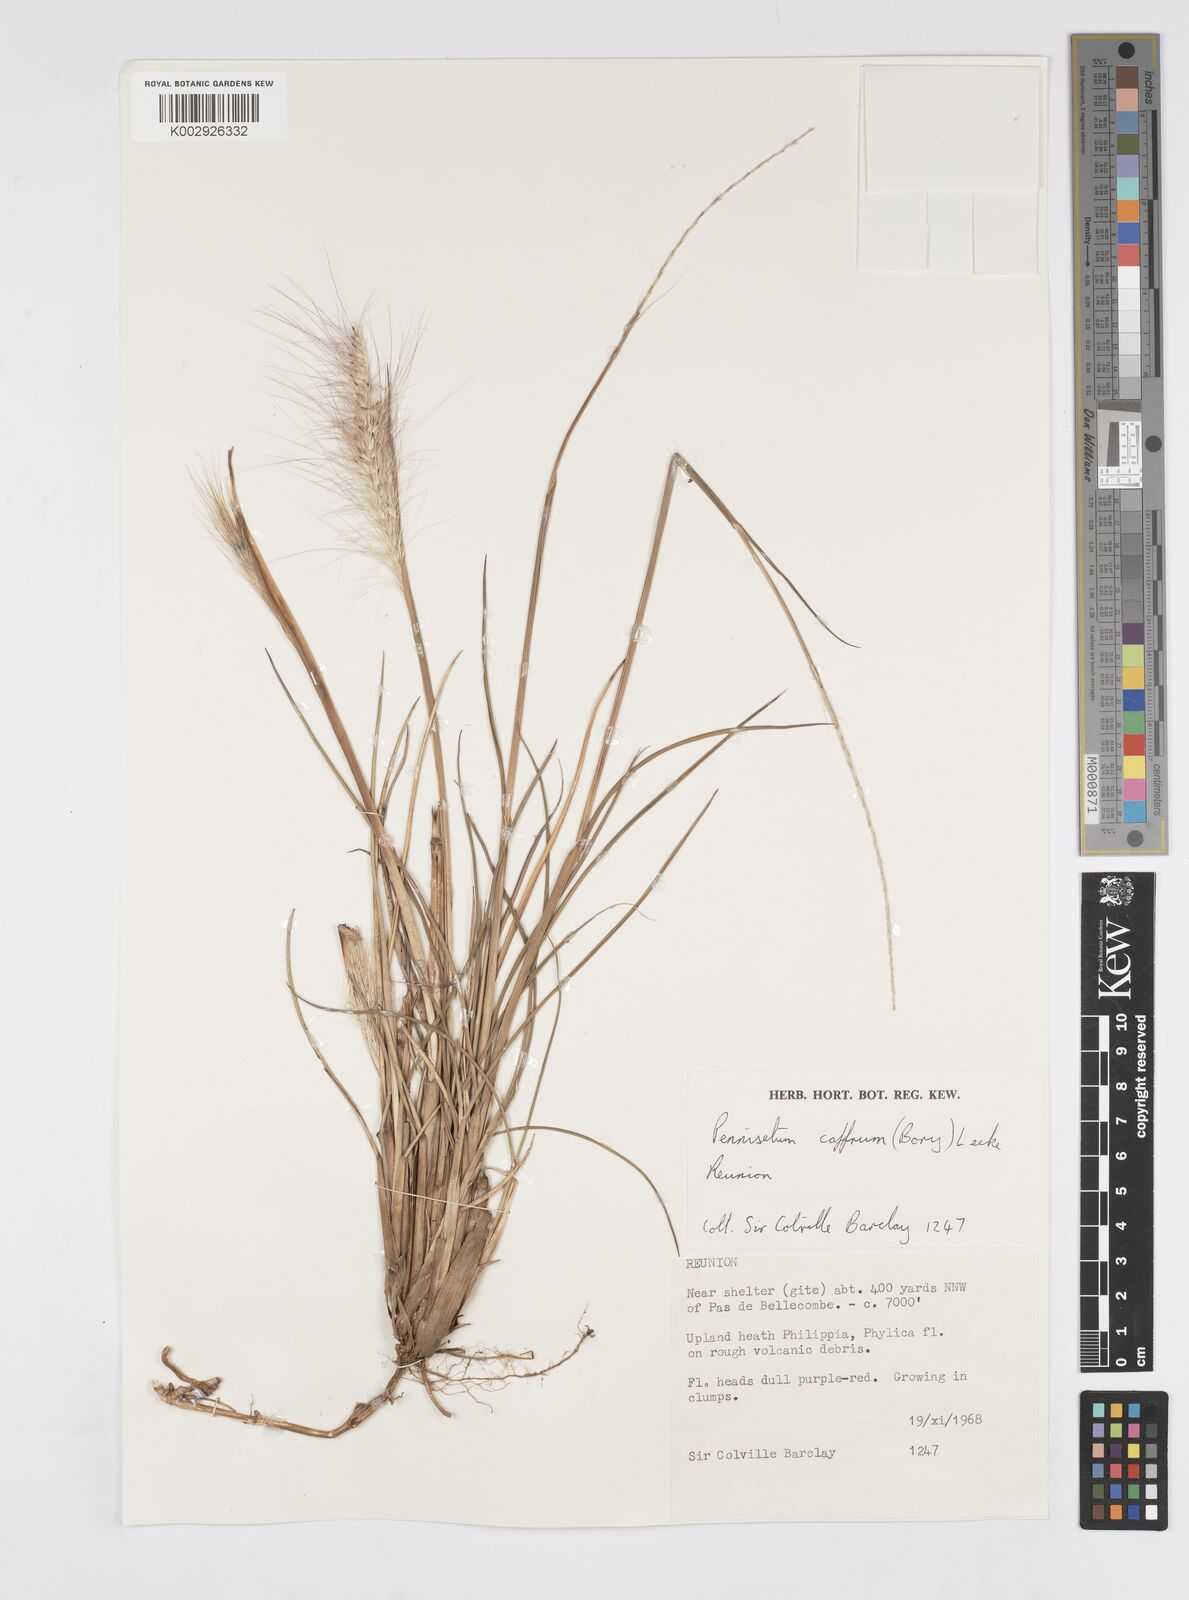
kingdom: Plantae
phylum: Tracheophyta
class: Liliopsida
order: Poales
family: Poaceae
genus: Cenchrus
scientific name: Cenchrus cafer
